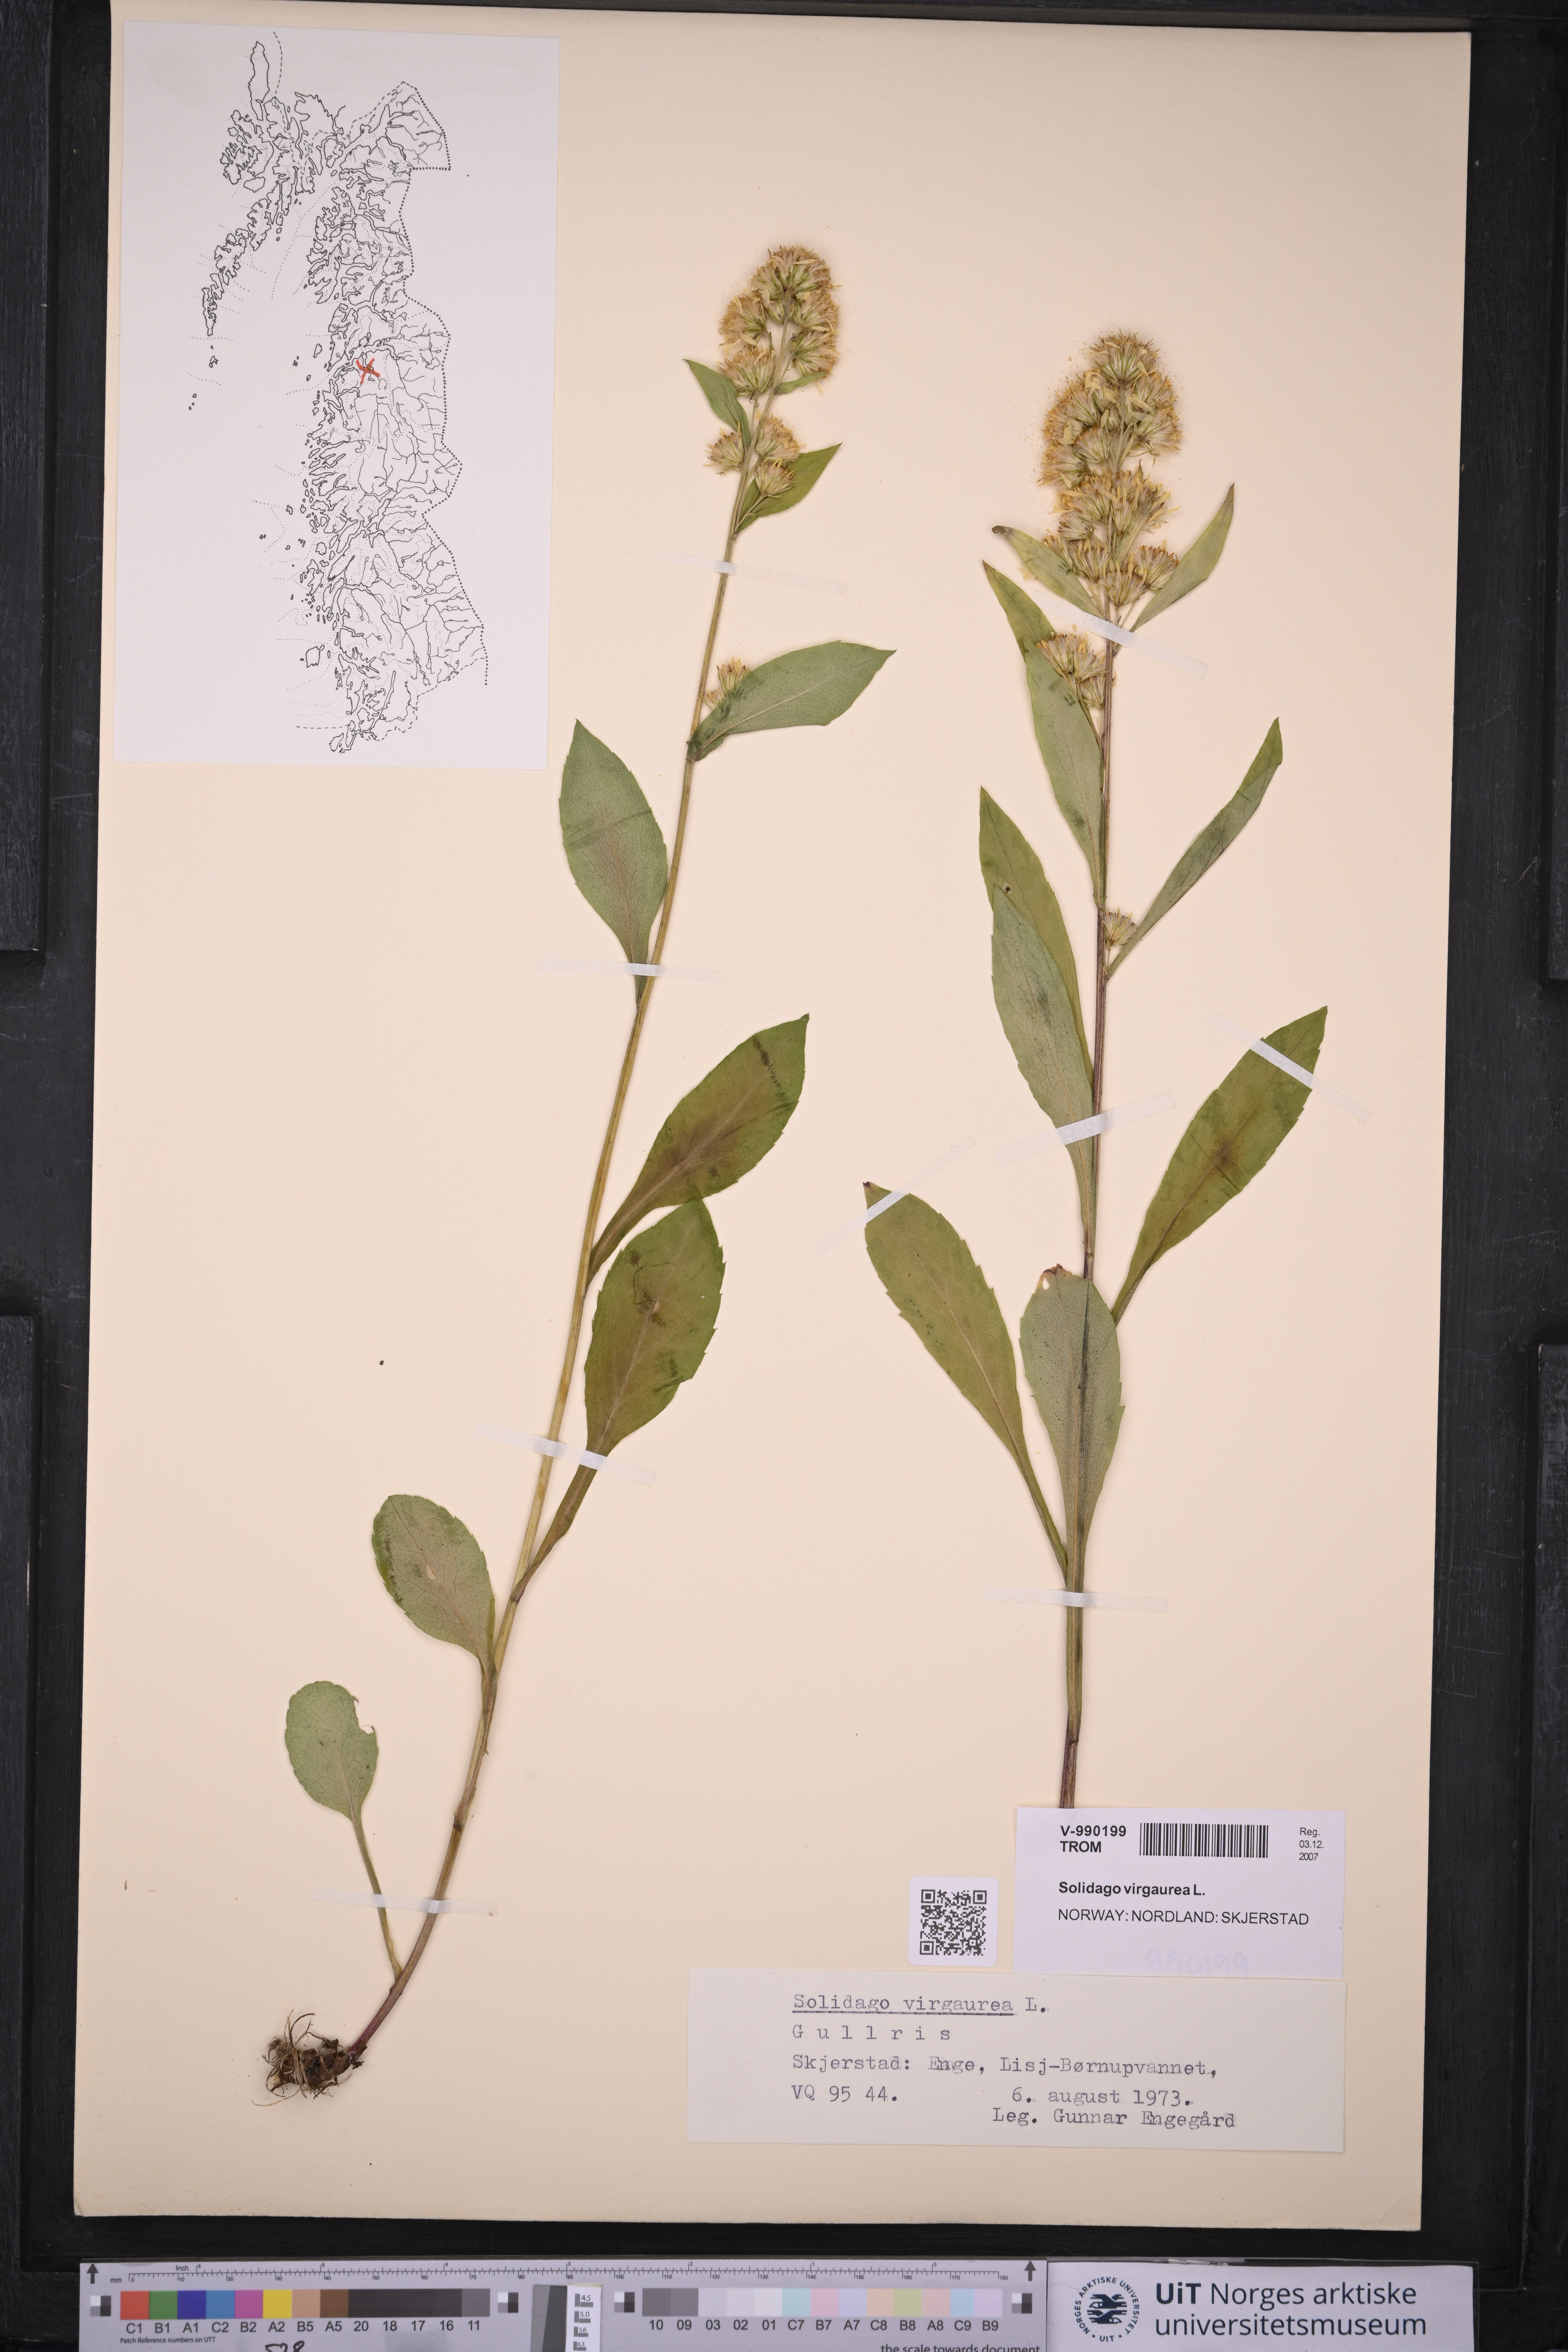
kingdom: Plantae
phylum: Tracheophyta
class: Magnoliopsida
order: Asterales
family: Asteraceae
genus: Solidago
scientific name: Solidago virgaurea
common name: Goldenrod
